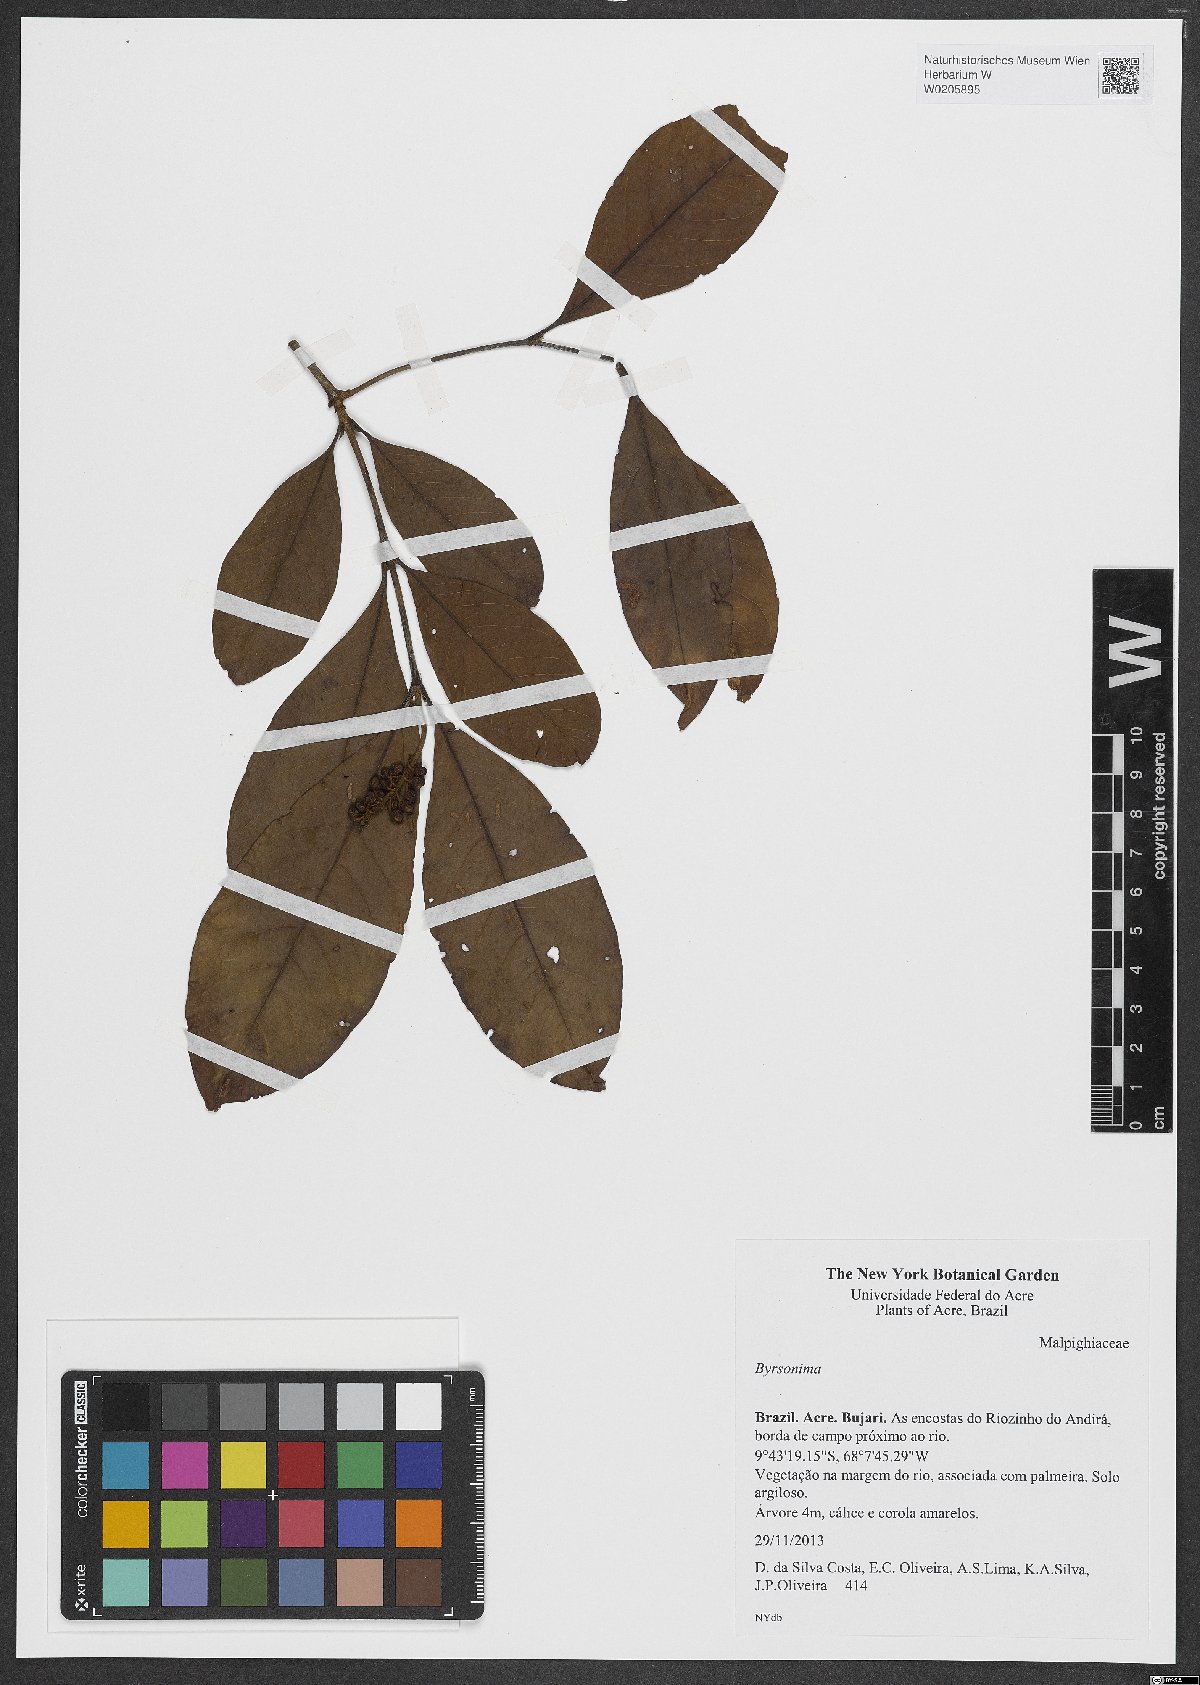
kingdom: Plantae
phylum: Tracheophyta
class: Magnoliopsida
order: Malpighiales
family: Malpighiaceae
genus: Byrsonima
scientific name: Byrsonima
